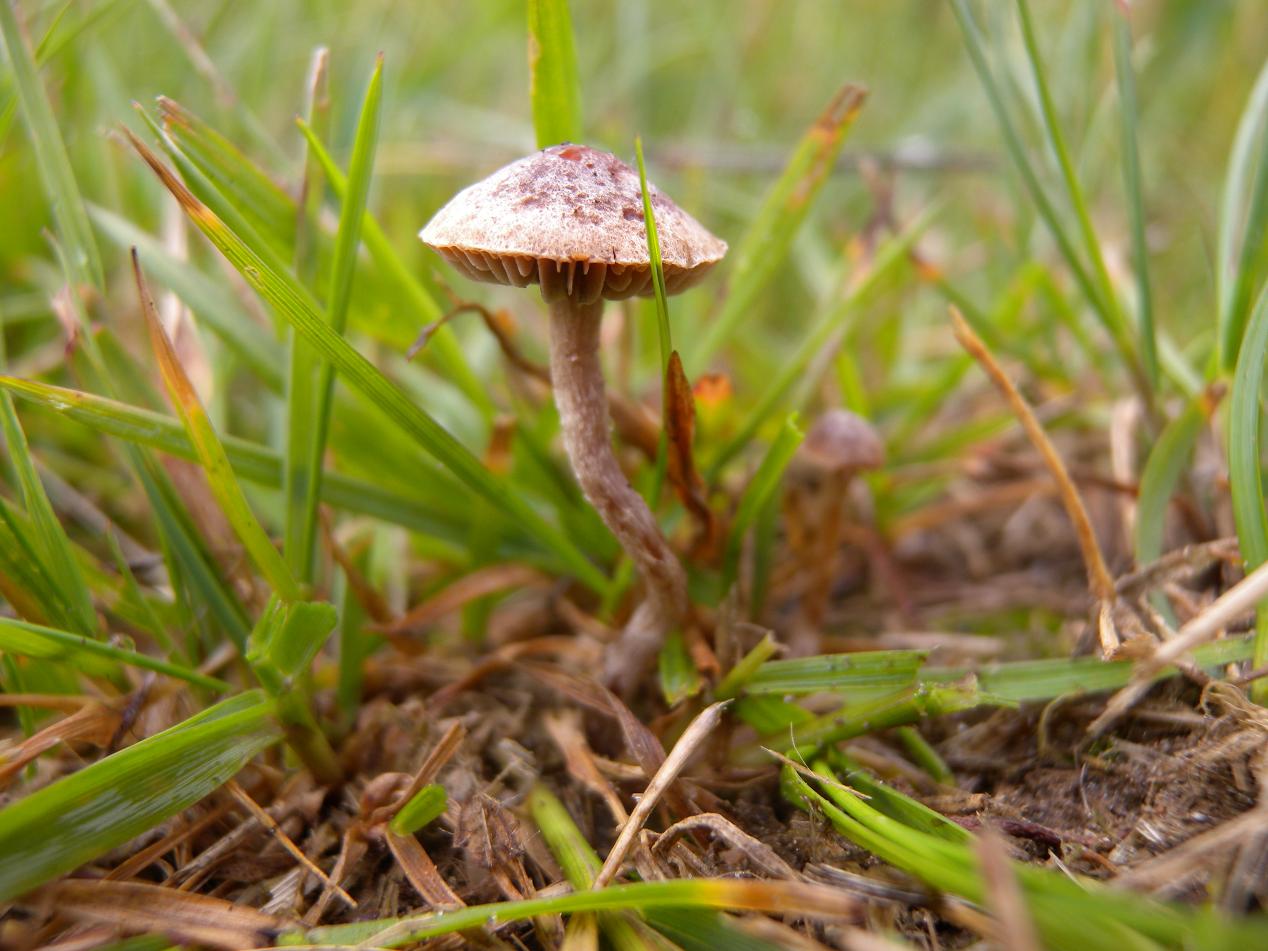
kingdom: Fungi
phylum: Basidiomycota
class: Agaricomycetes
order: Agaricales
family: Hymenogastraceae
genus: Psilocybe
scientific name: Psilocybe subviscida
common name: puklet stråhat
